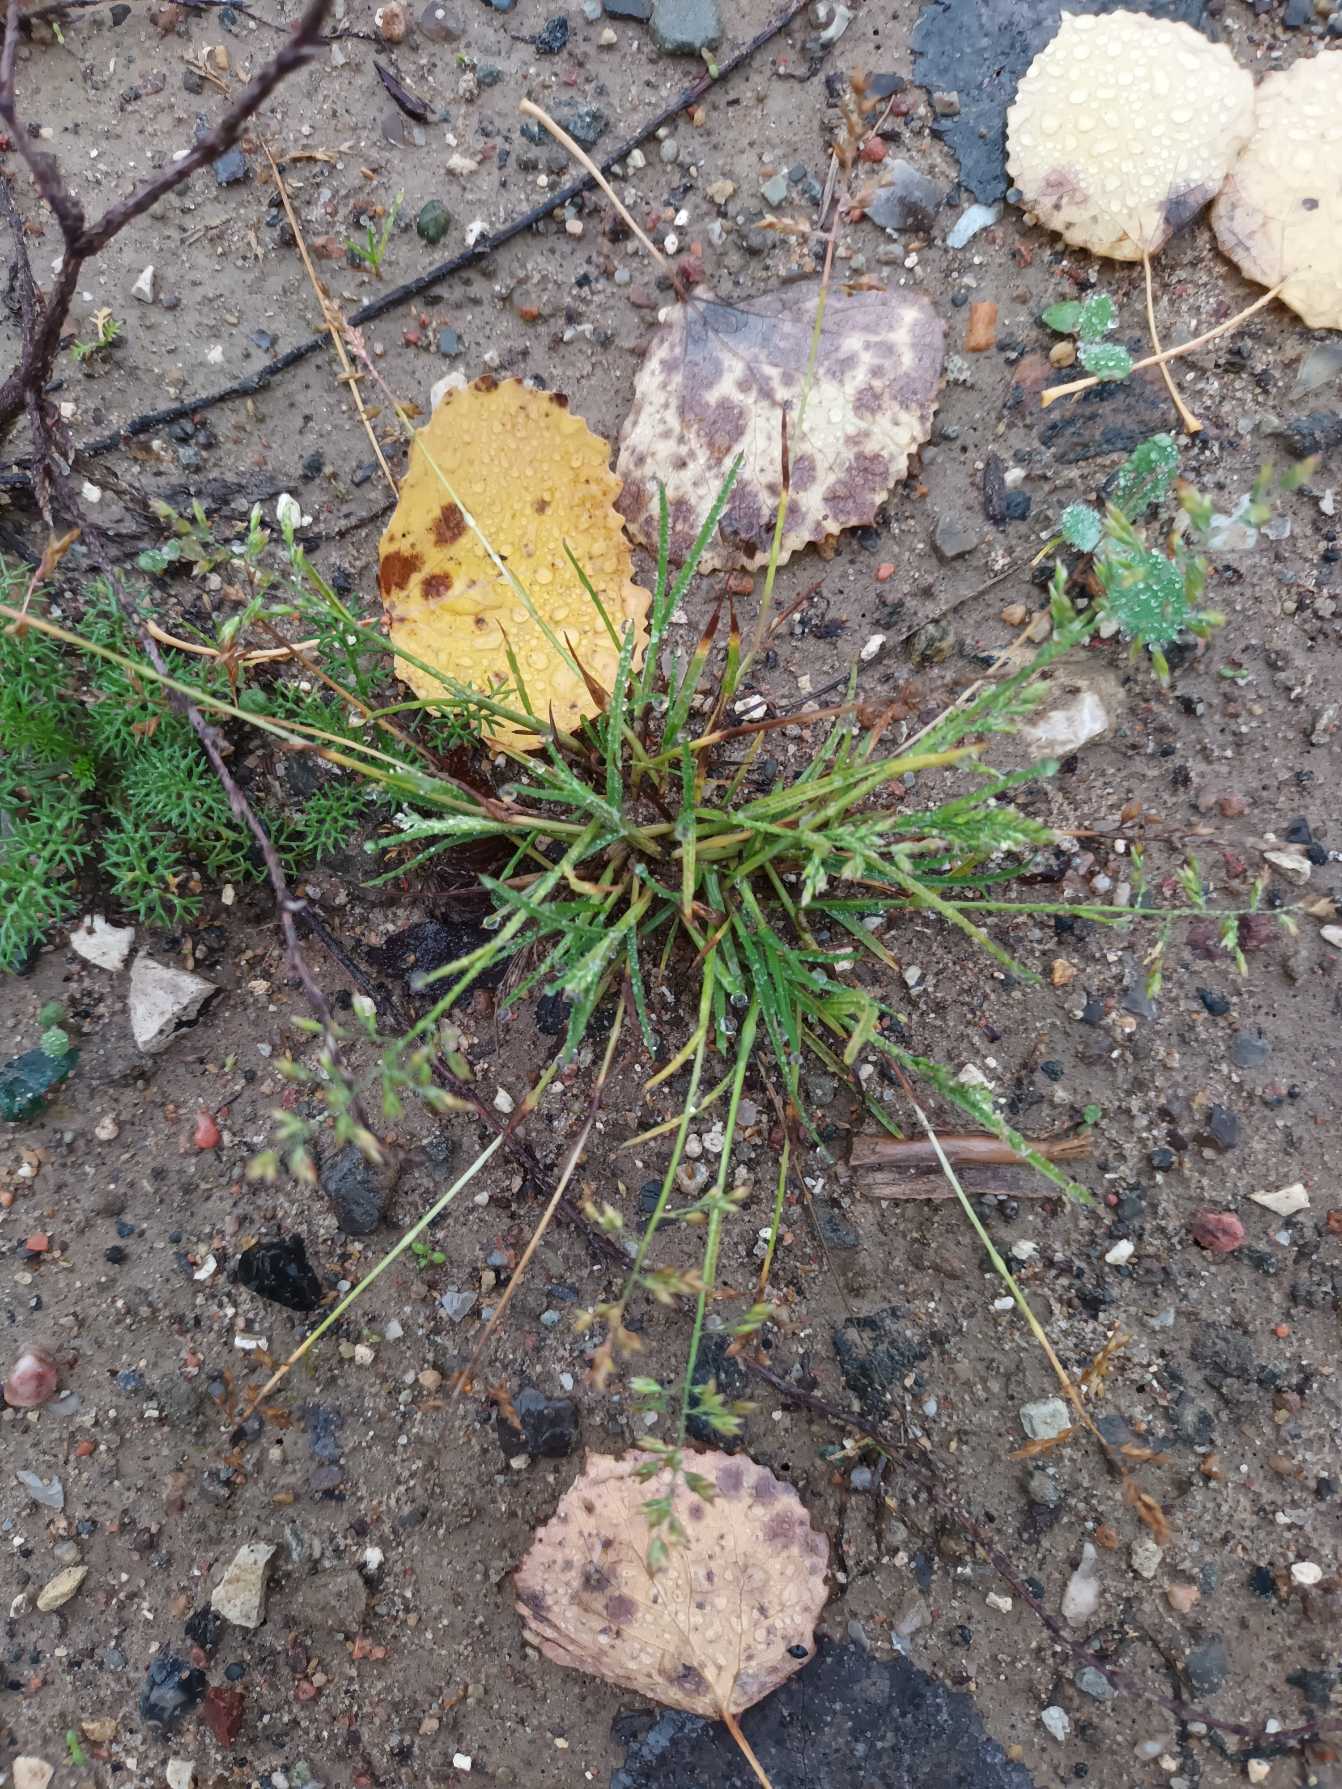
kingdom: Plantae
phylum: Tracheophyta
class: Liliopsida
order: Poales
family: Poaceae
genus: Poa
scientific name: Poa annua
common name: Enårig rapgræs
